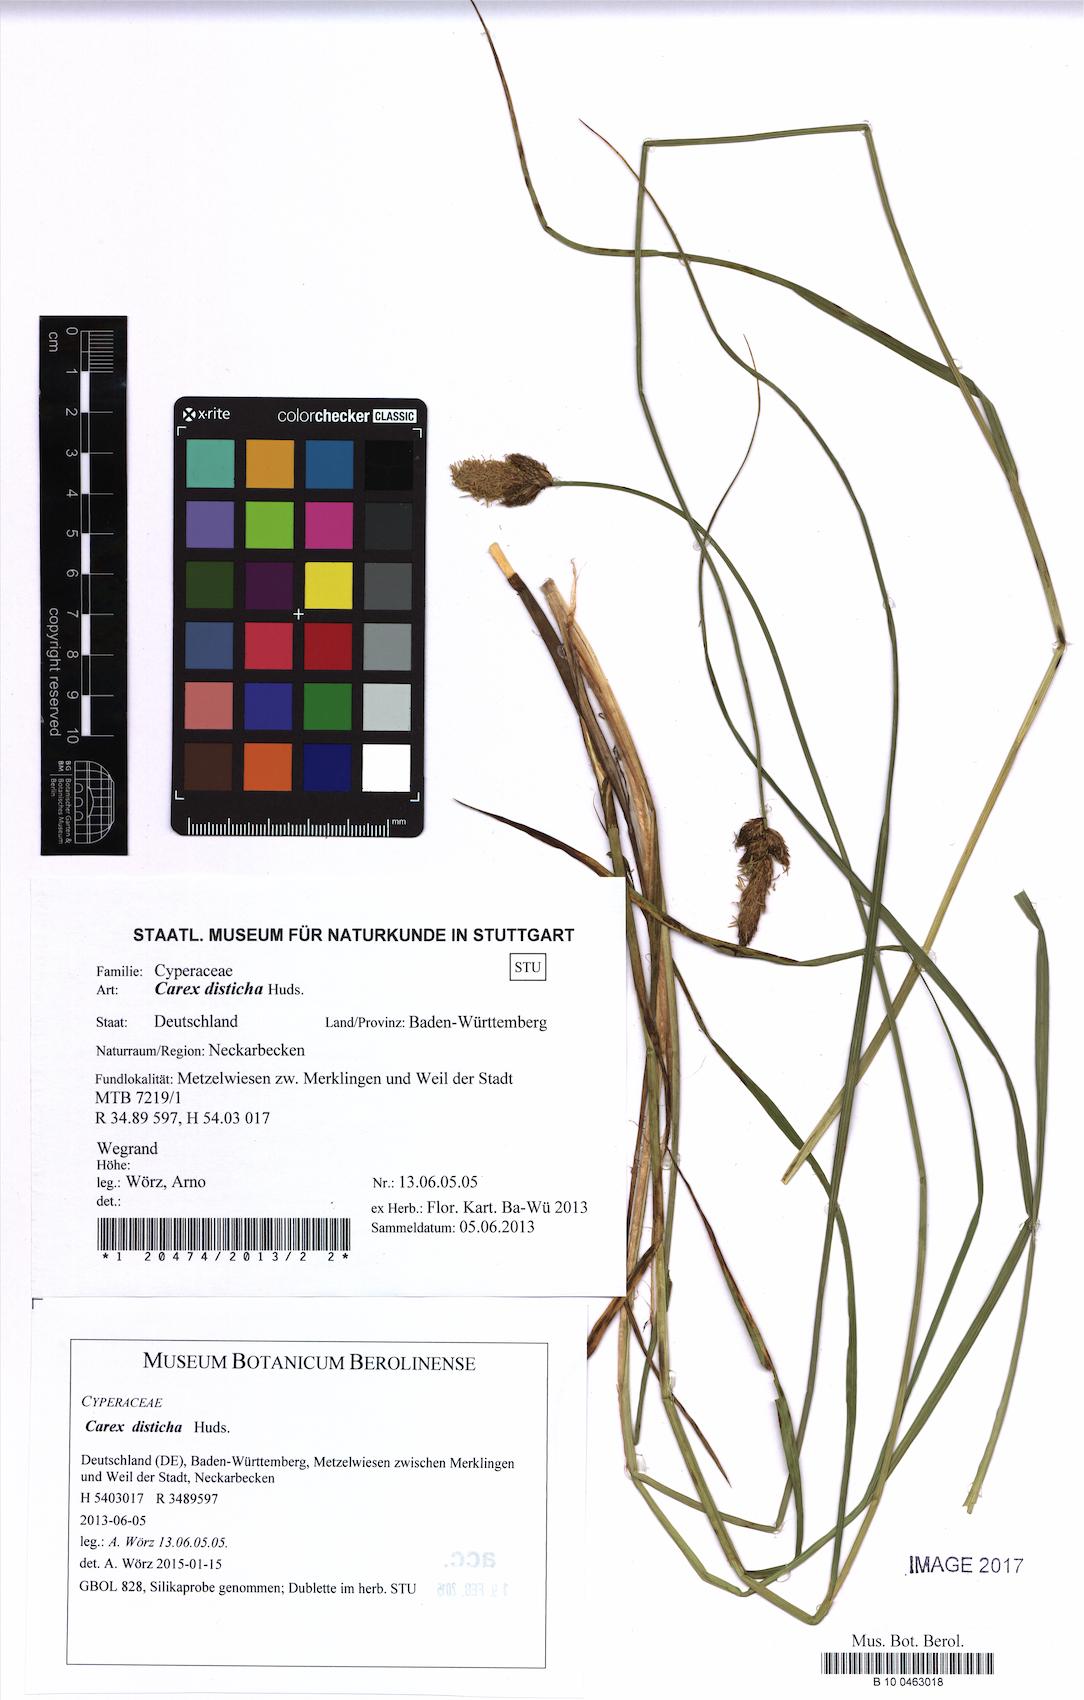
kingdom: Plantae
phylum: Tracheophyta
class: Liliopsida
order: Poales
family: Cyperaceae
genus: Carex
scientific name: Carex disticha
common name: Brown sedge
